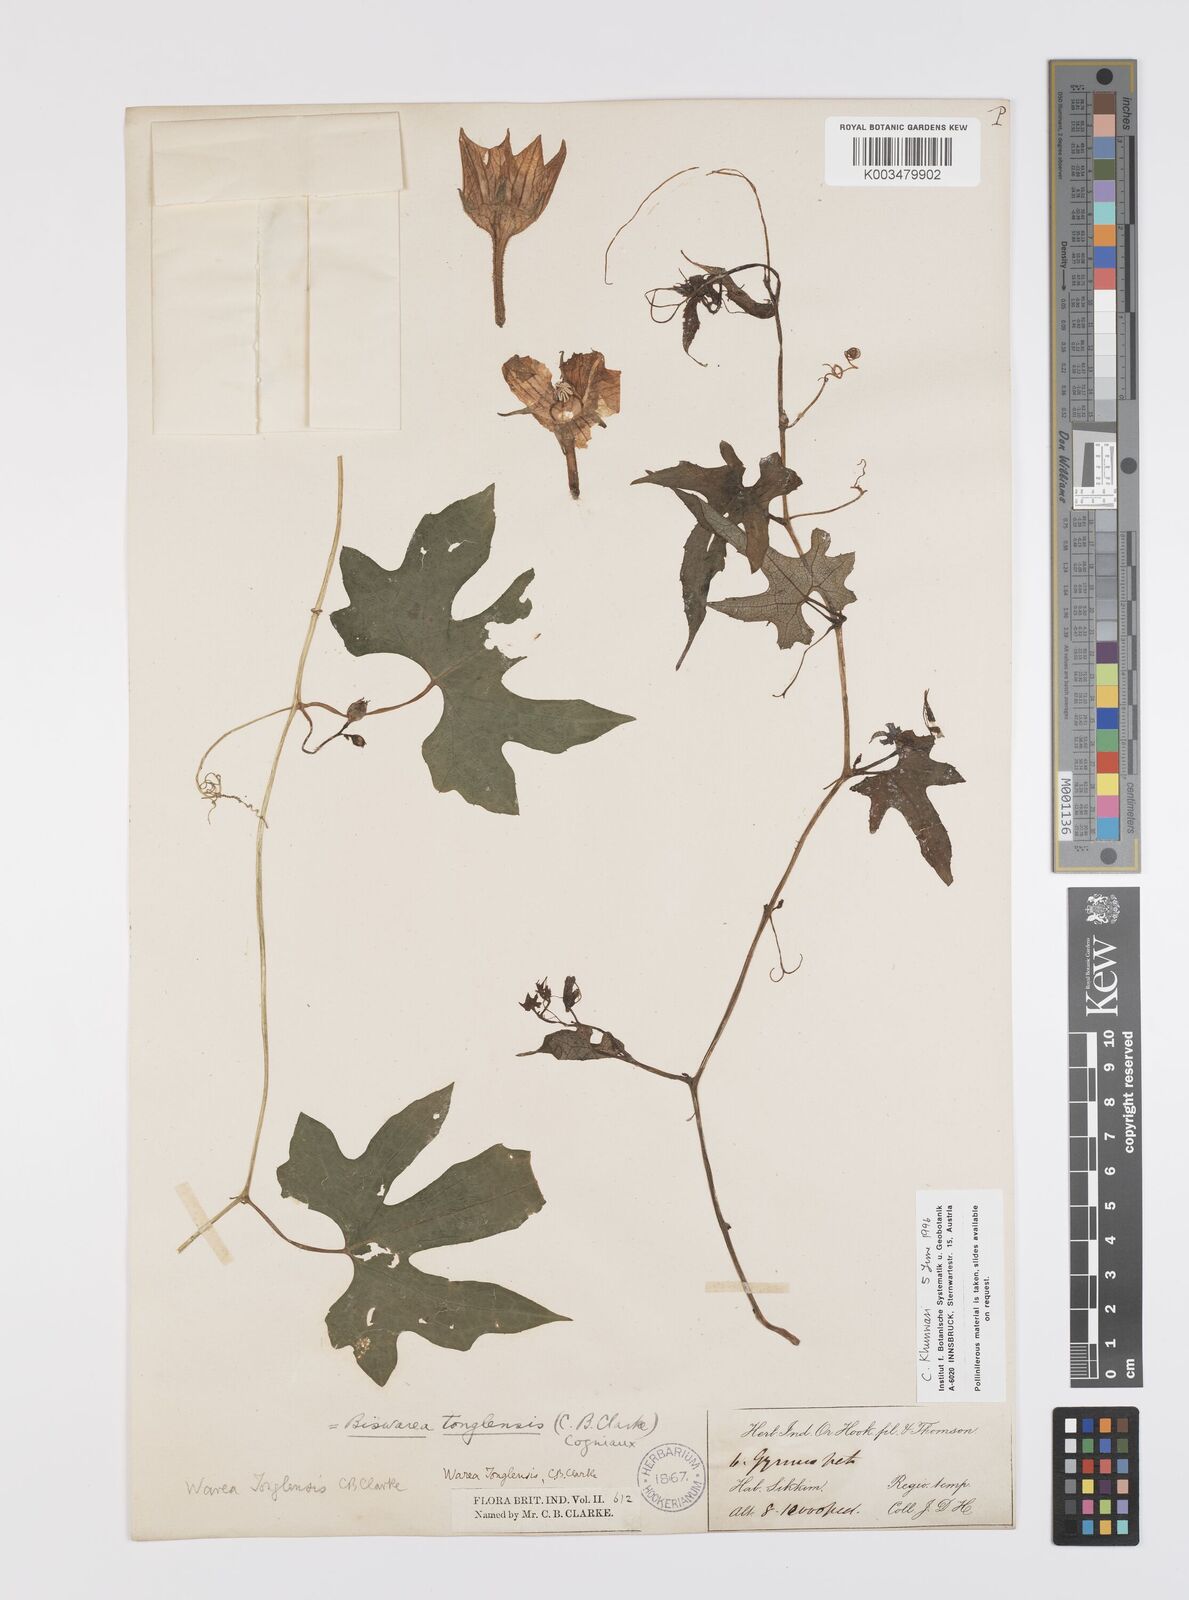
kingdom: Plantae
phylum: Tracheophyta
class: Magnoliopsida
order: Cucurbitales
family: Cucurbitaceae
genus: Benincasa
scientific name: Benincasa
